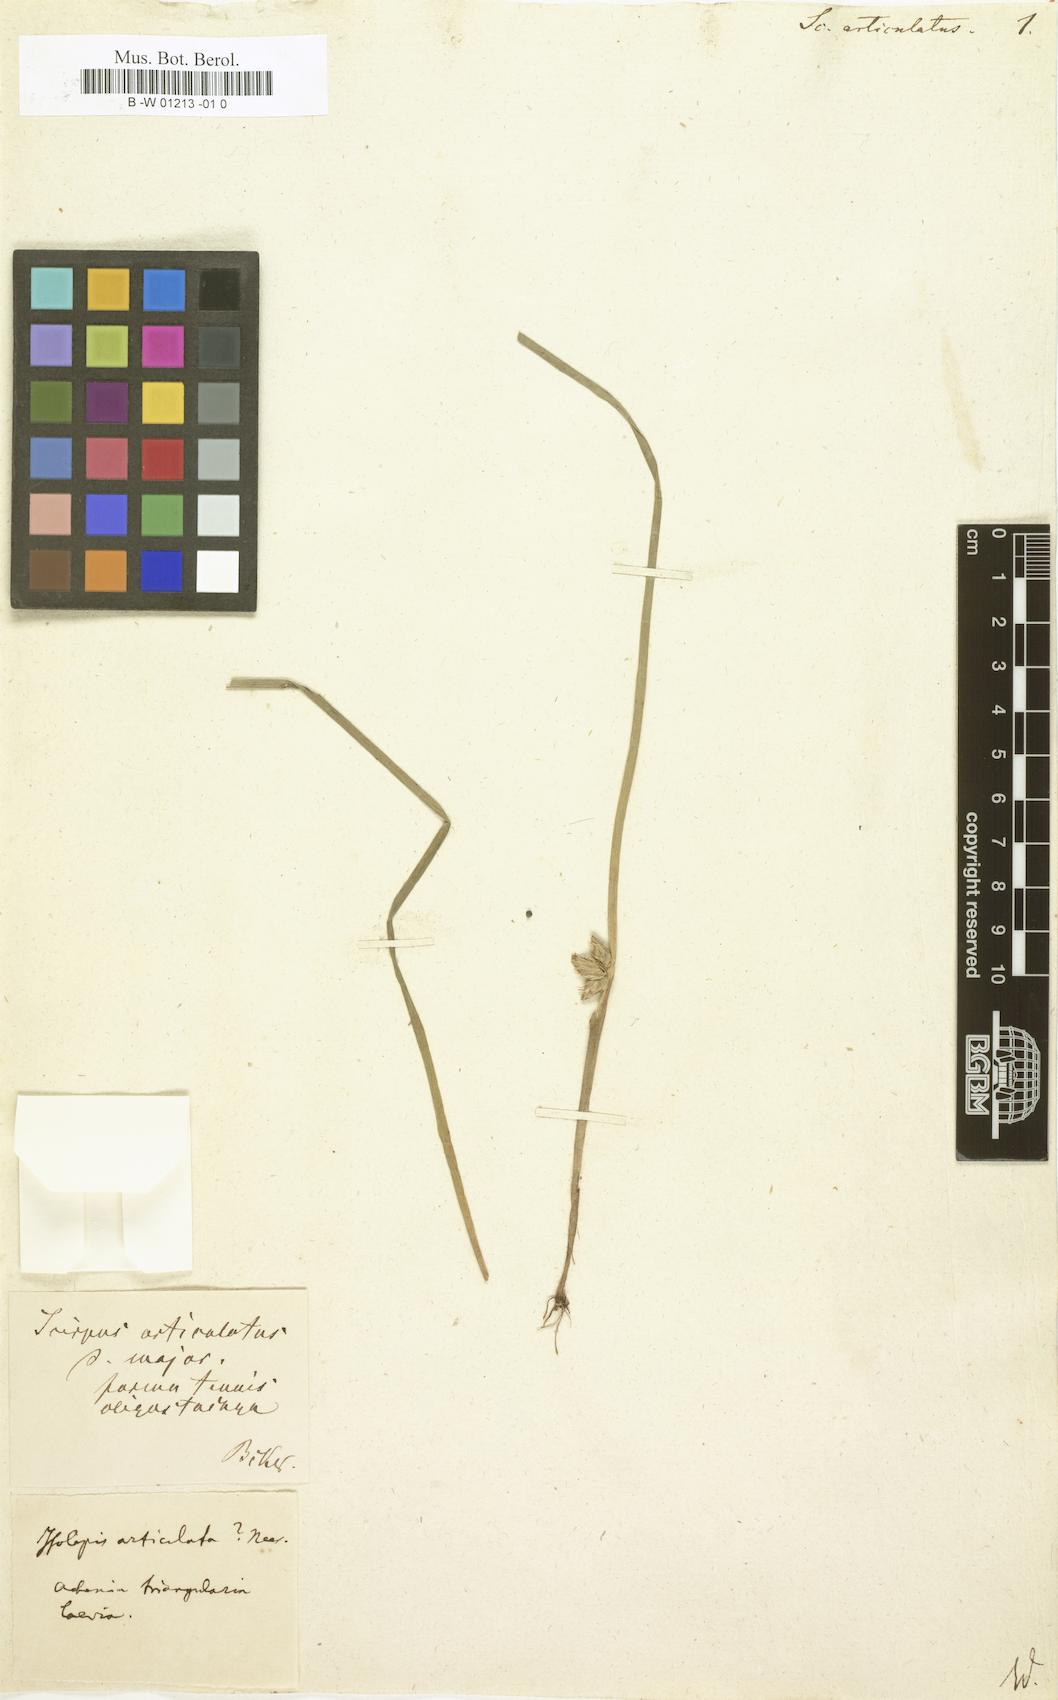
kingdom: Plantae
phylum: Tracheophyta
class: Liliopsida
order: Poales
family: Cyperaceae
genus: Schoenoplectiella
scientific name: Schoenoplectiella articulata
